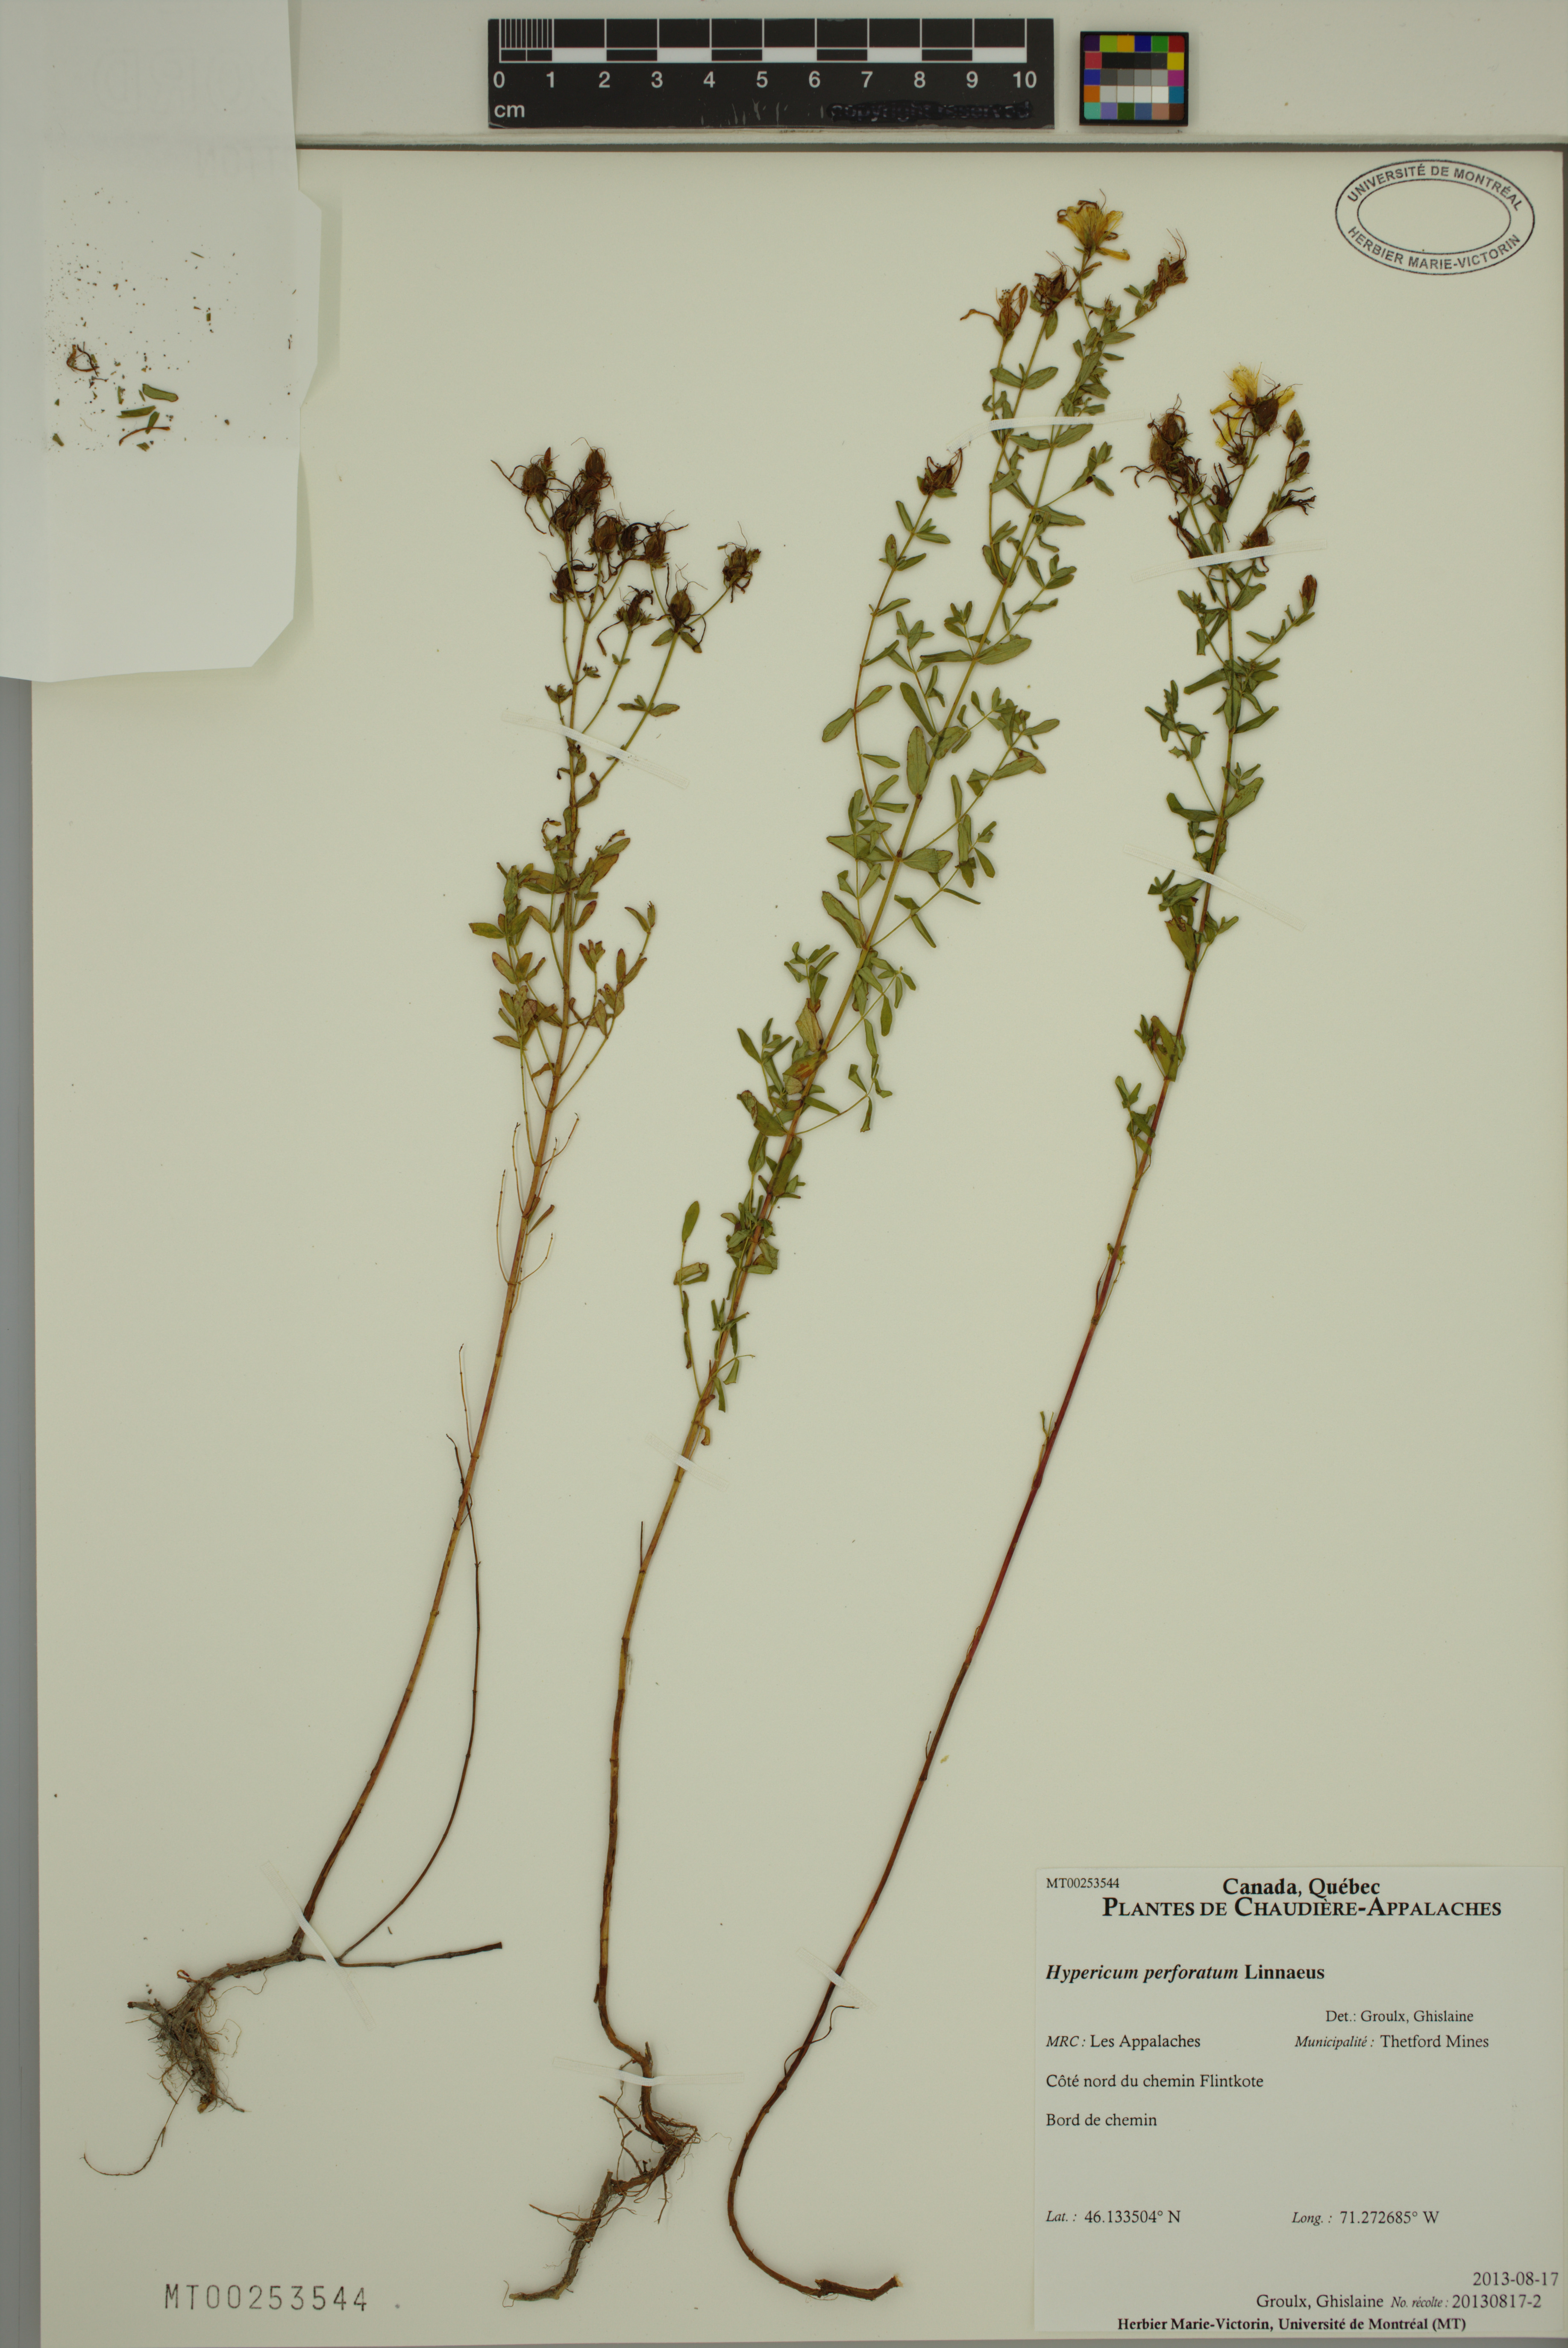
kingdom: Plantae
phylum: Tracheophyta
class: Magnoliopsida
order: Malpighiales
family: Hypericaceae
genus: Hypericum
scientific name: Hypericum perforatum
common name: Common st. johnswort
